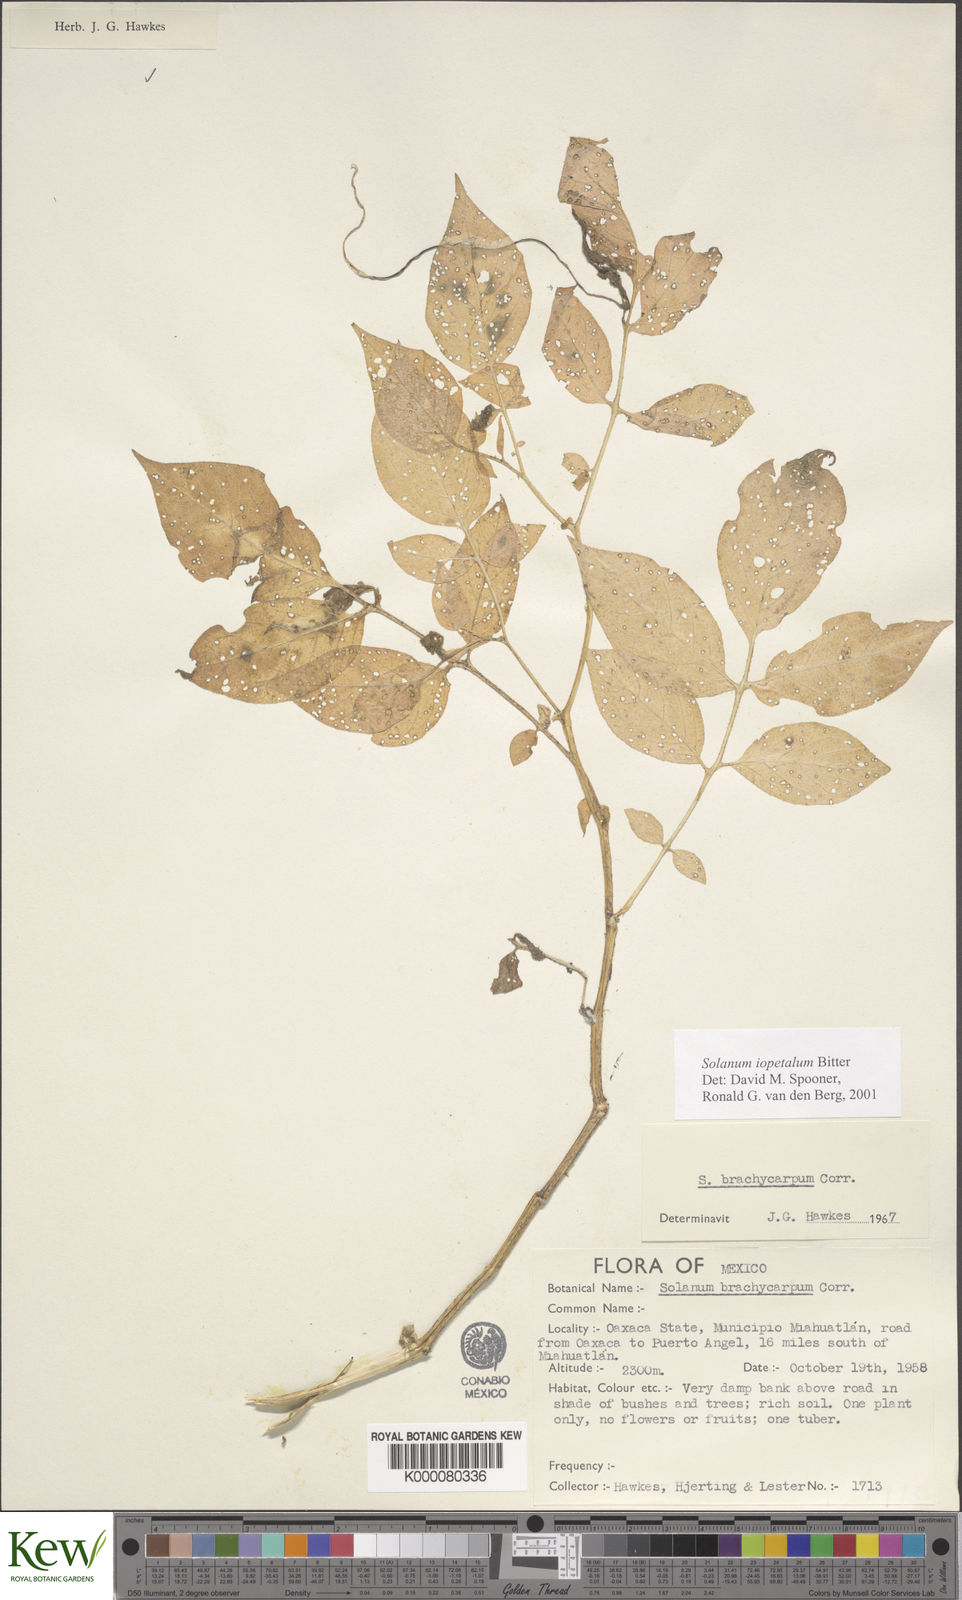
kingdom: Plantae
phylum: Tracheophyta
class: Magnoliopsida
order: Solanales
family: Solanaceae
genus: Solanum
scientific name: Solanum iopetalum
